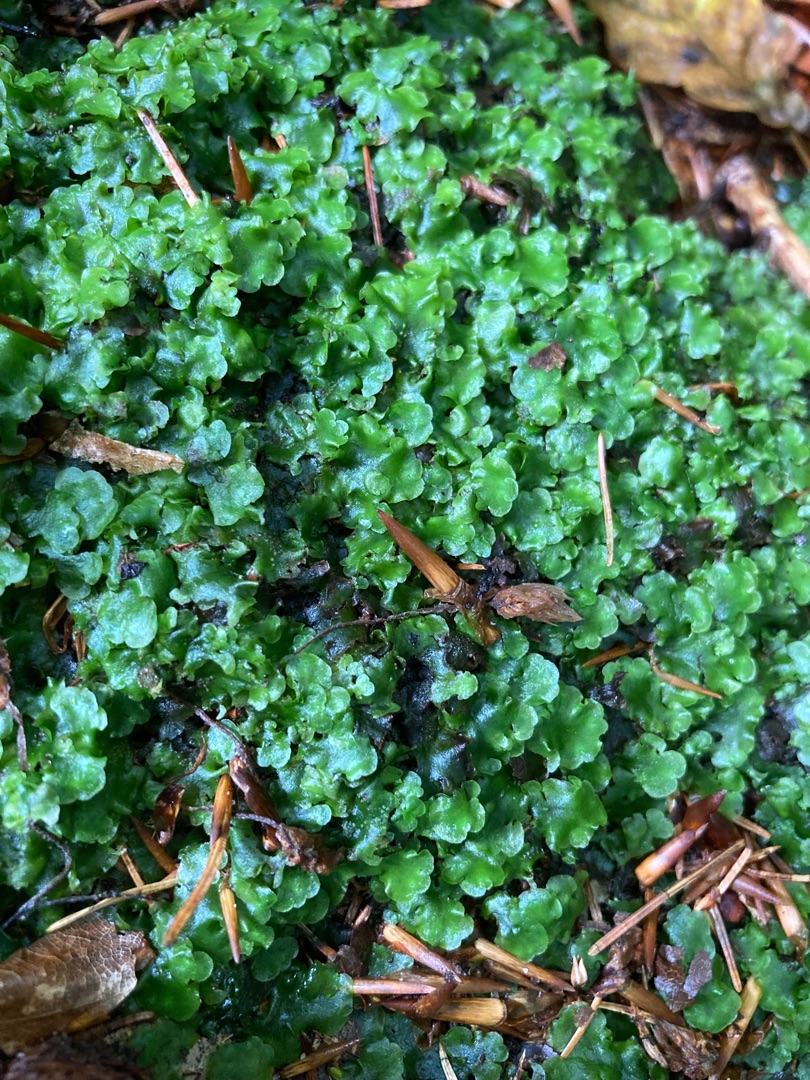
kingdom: Plantae
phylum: Marchantiophyta
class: Jungermanniopsida
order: Pelliales
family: Pelliaceae
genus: Pellia
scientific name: Pellia epiphylla
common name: Enbo ribbeløv
